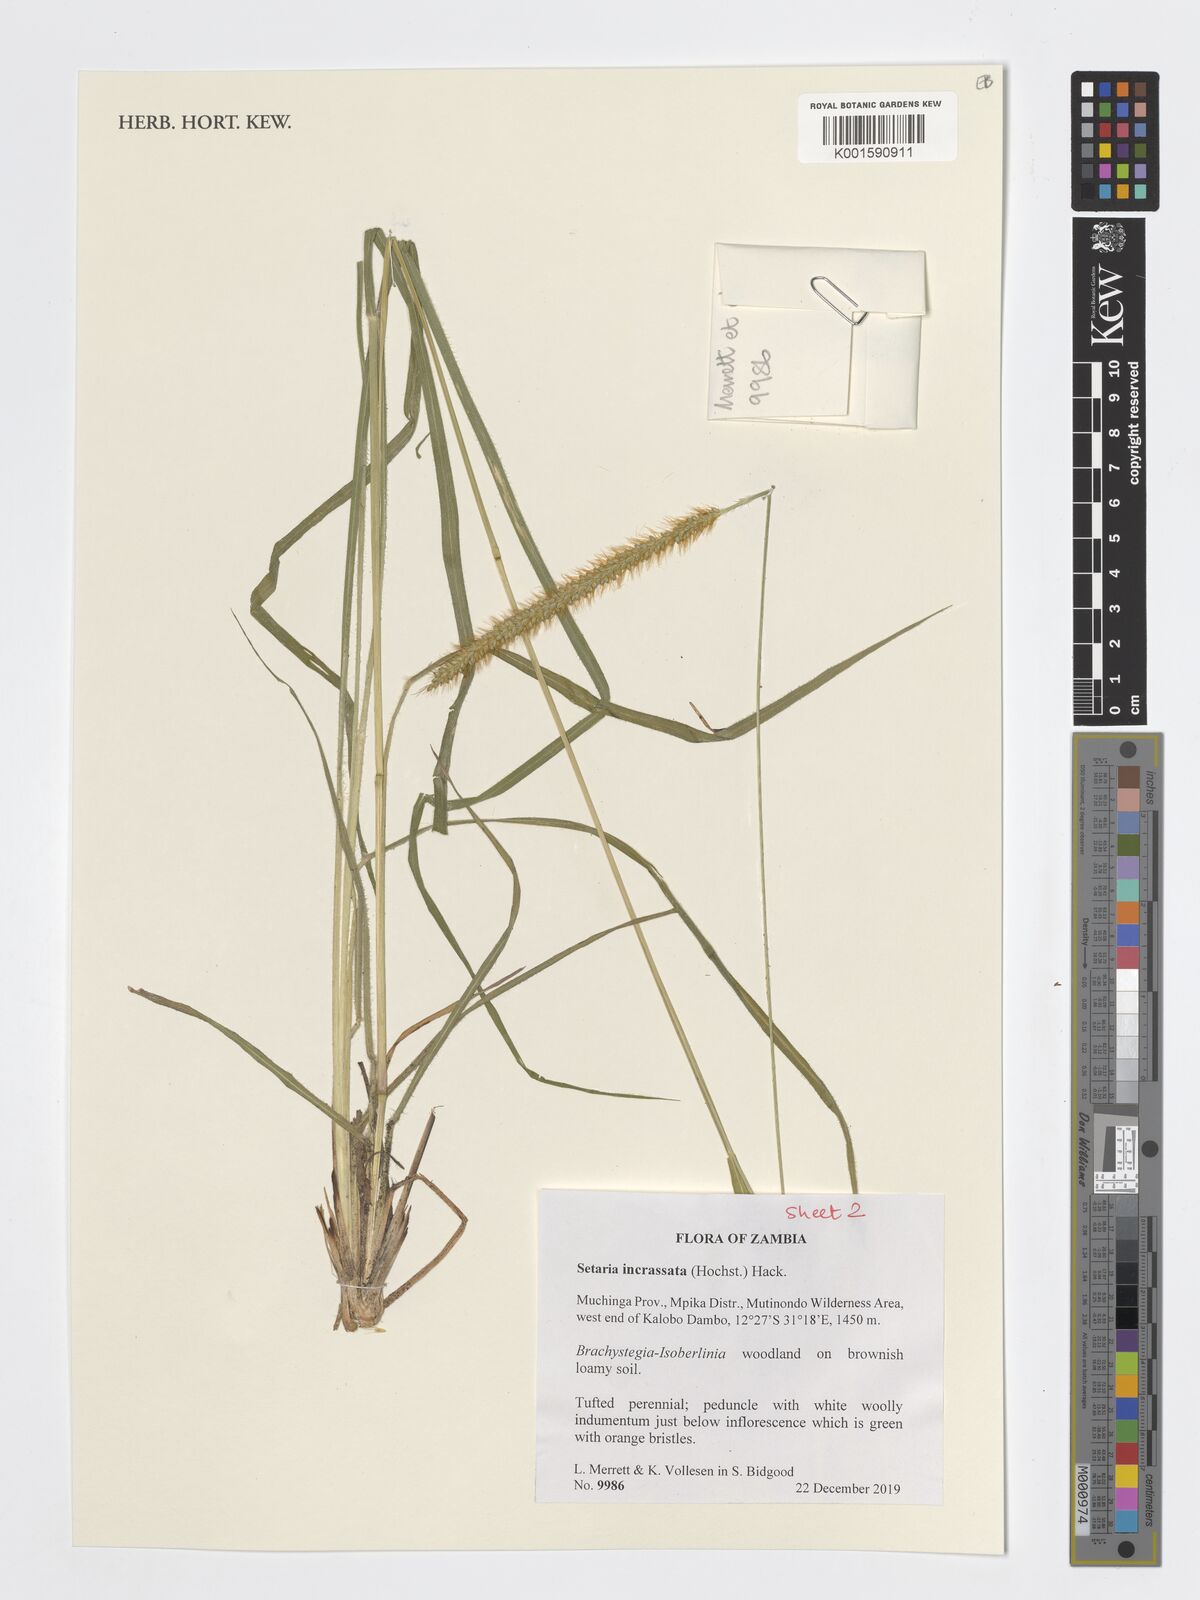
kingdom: Plantae
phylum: Tracheophyta
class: Liliopsida
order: Poales
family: Poaceae
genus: Setaria
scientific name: Setaria incrassata
